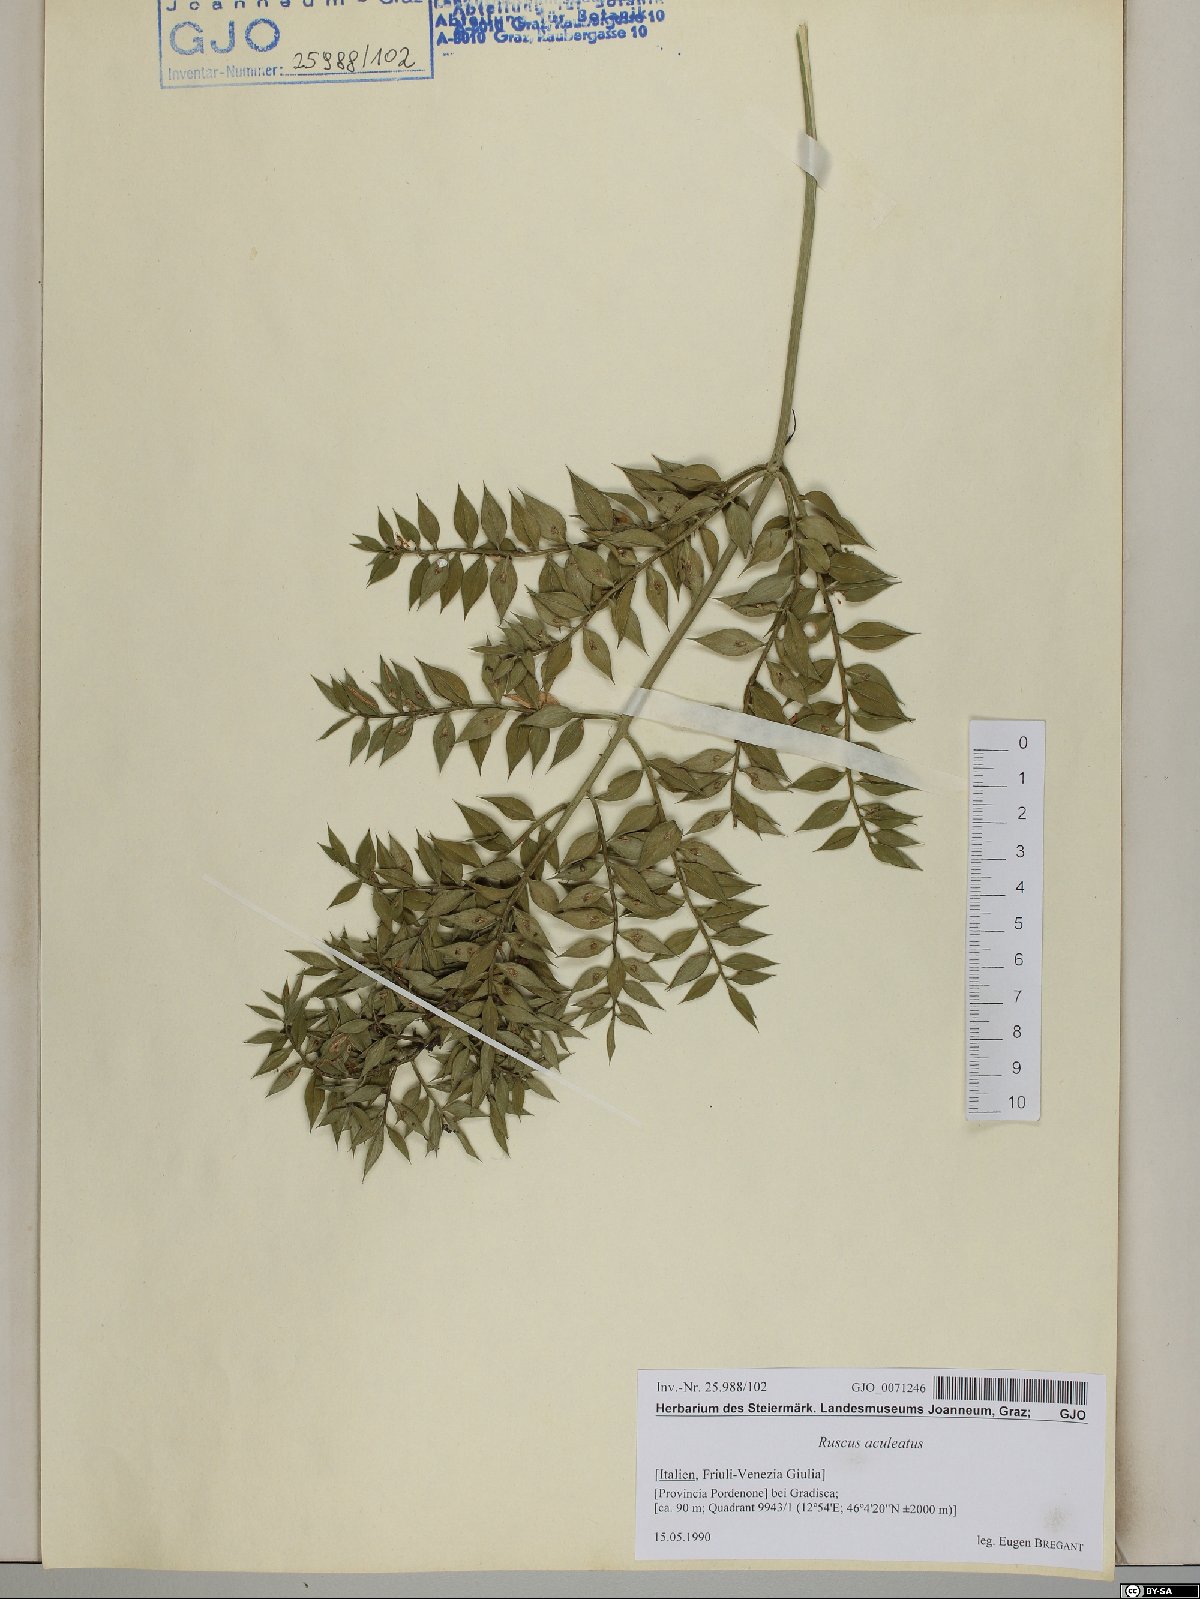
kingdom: Plantae
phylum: Tracheophyta
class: Liliopsida
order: Asparagales
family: Asparagaceae
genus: Ruscus
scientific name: Ruscus aculeatus
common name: Butcher's-broom
